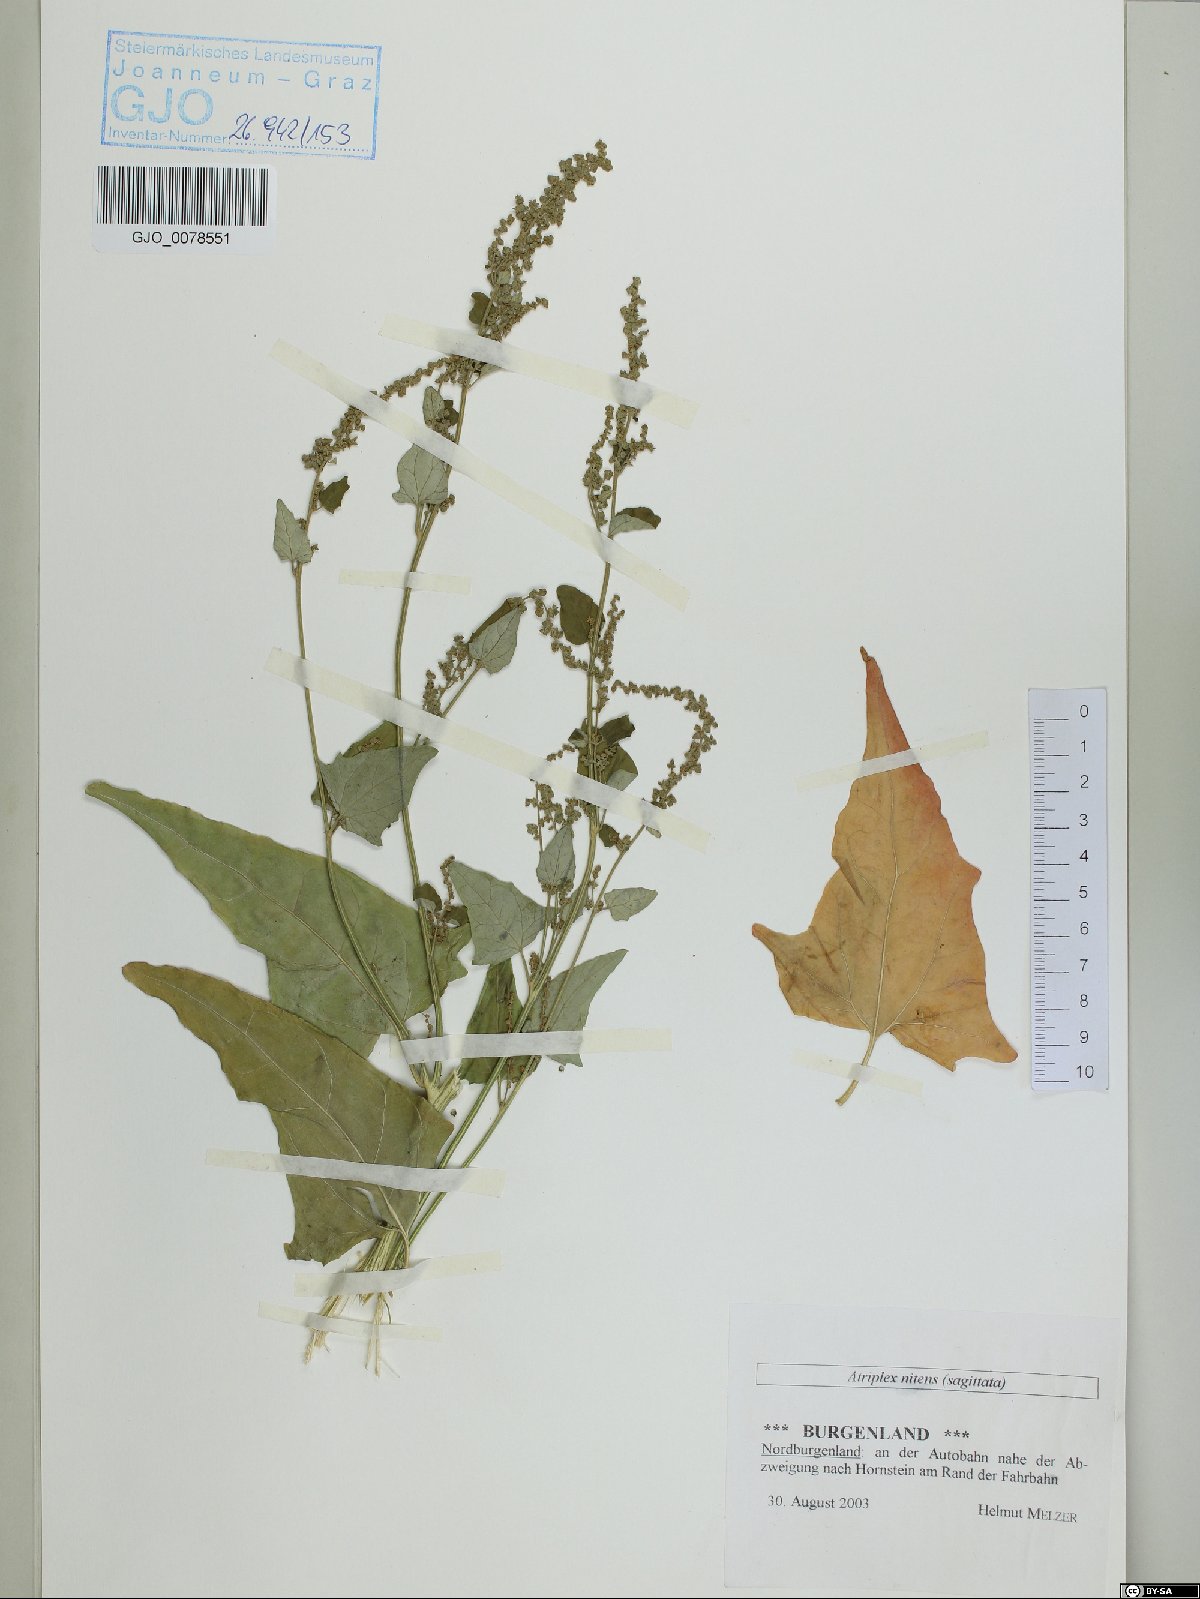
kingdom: Plantae
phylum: Tracheophyta
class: Magnoliopsida
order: Caryophyllales
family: Amaranthaceae
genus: Atriplex
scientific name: Atriplex sagittata
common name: Purple orache
